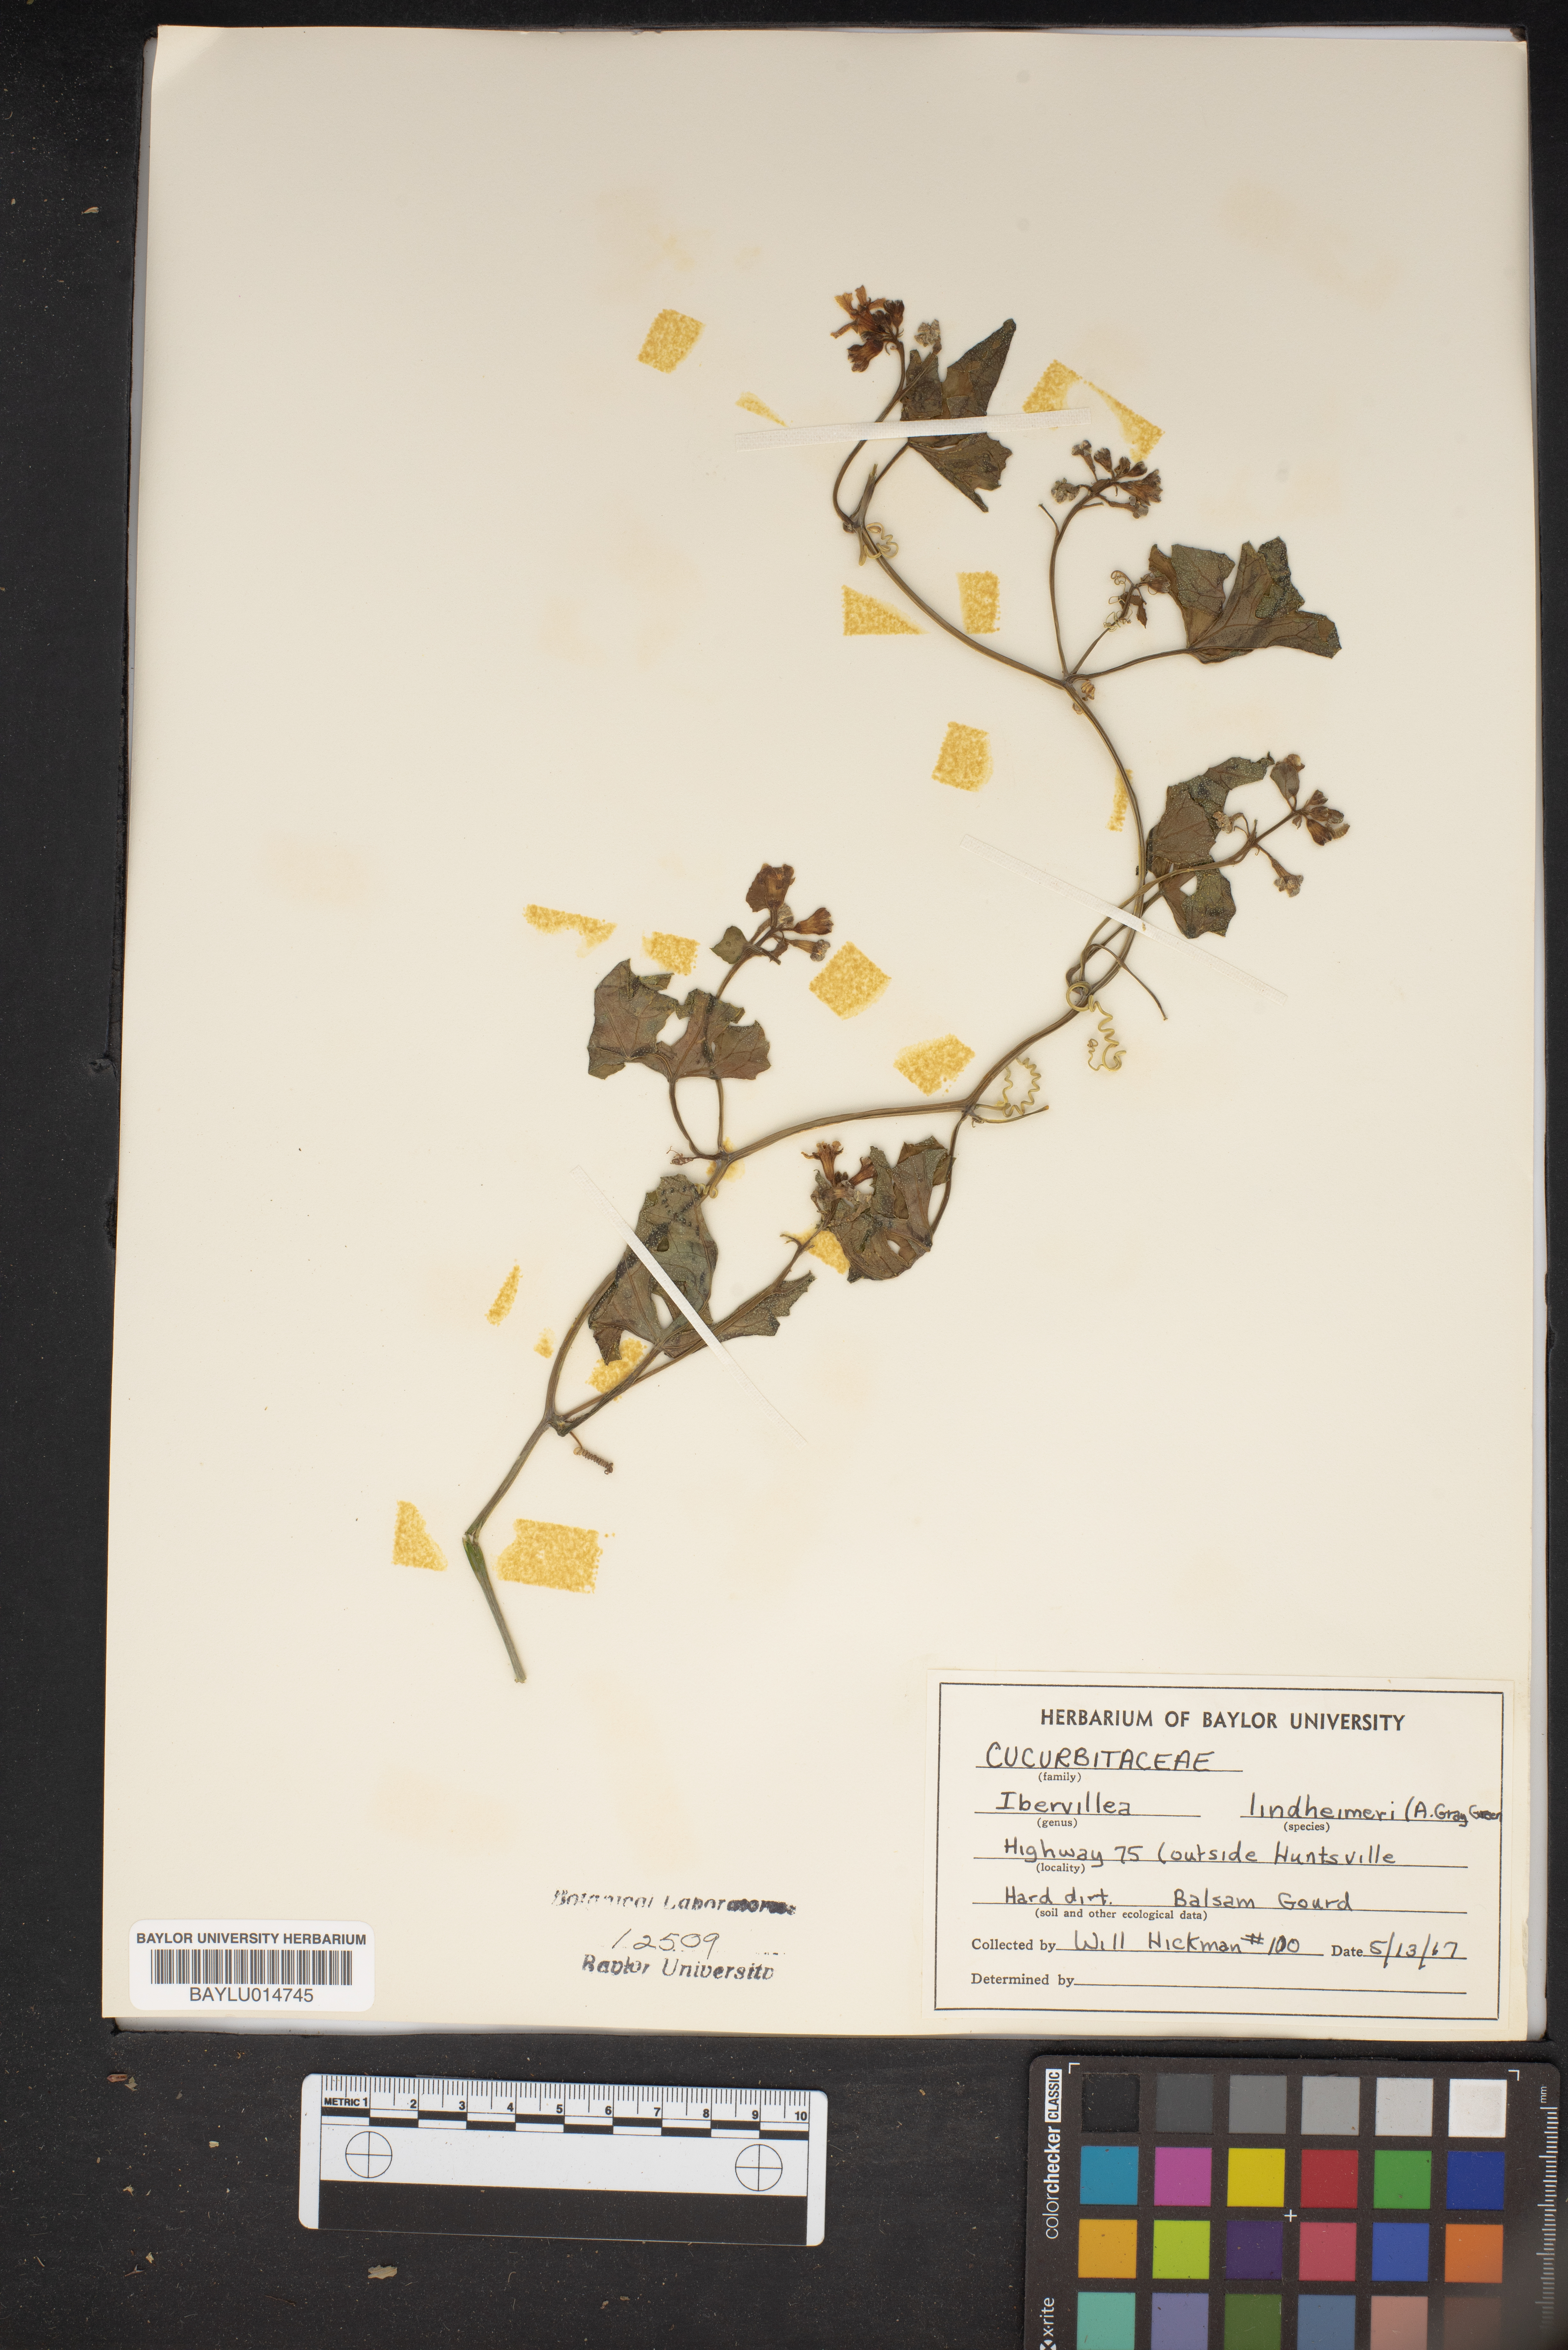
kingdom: Plantae
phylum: Tracheophyta
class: Magnoliopsida
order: Cucurbitales
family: Cucurbitaceae
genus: Ibervillea
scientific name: Ibervillea lindheimeri
